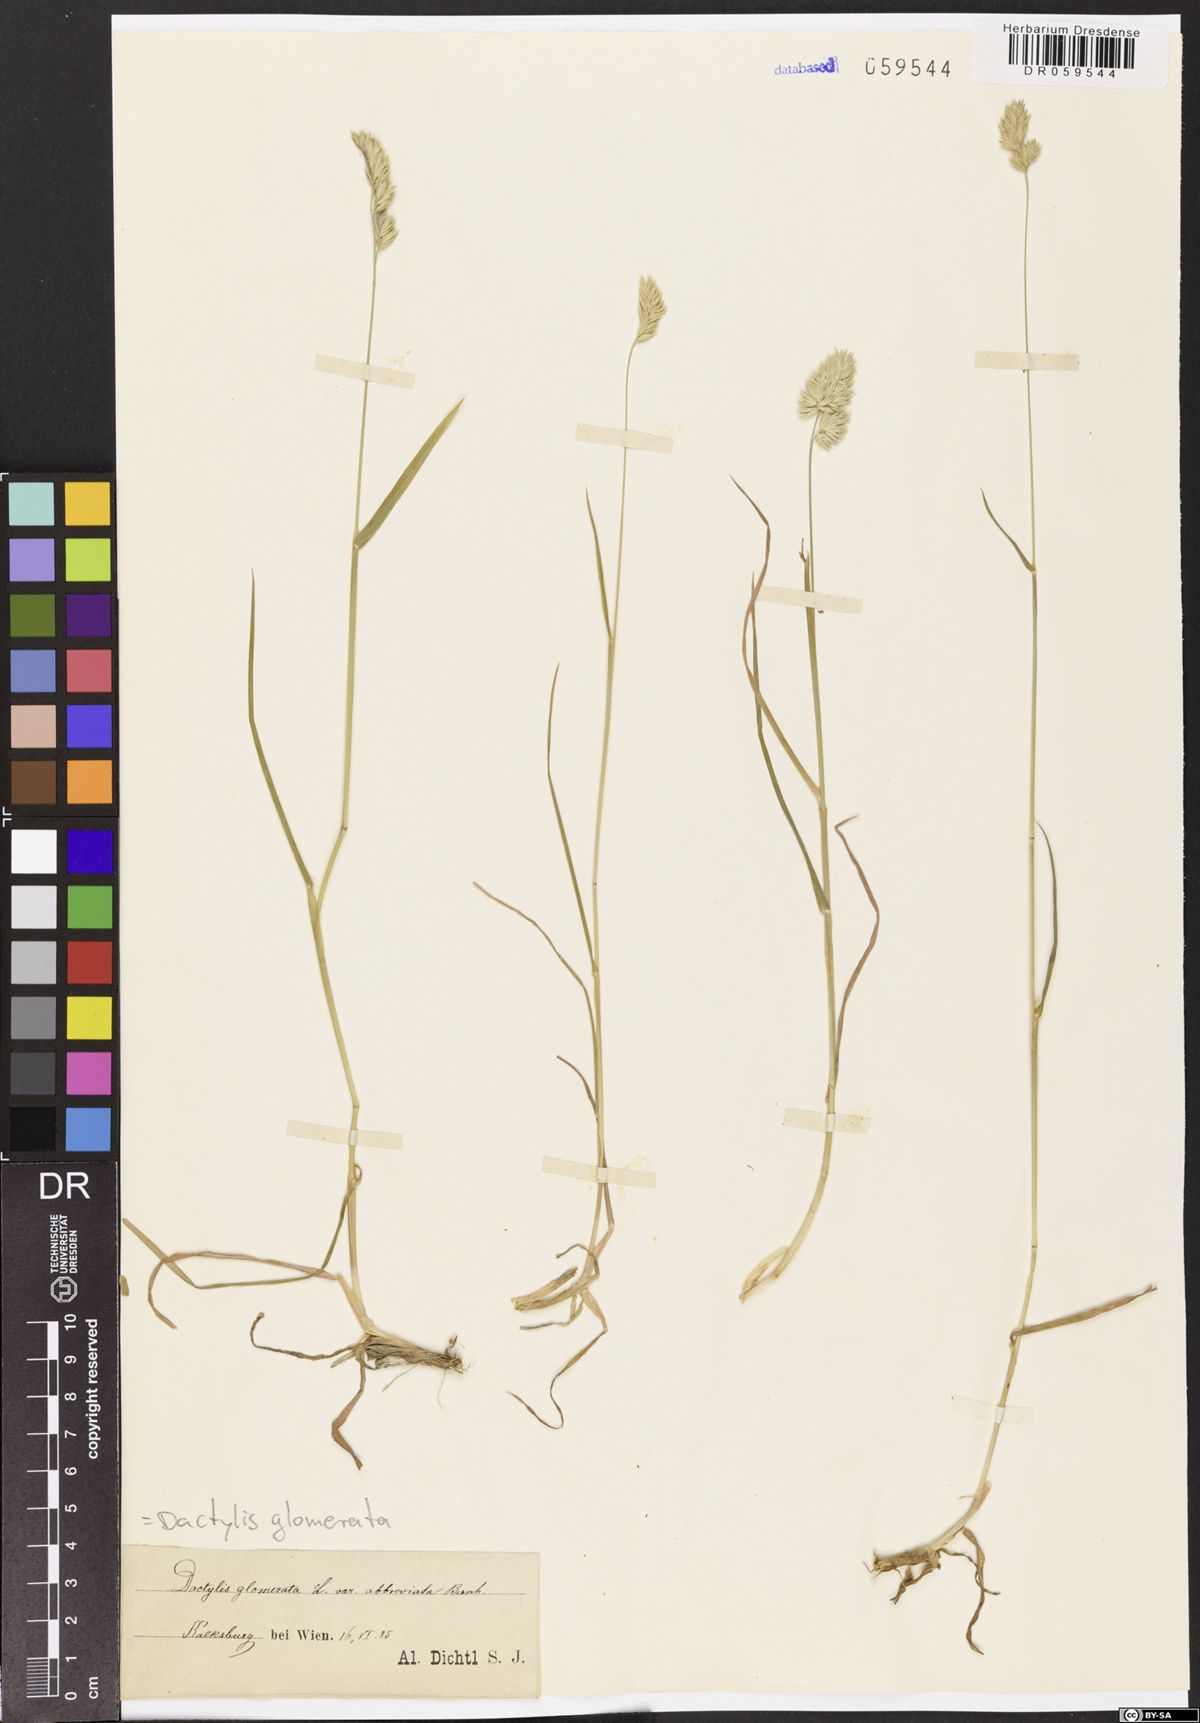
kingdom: Plantae
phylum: Tracheophyta
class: Liliopsida
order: Poales
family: Poaceae
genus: Dactylis
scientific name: Dactylis glomerata
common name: Orchardgrass
